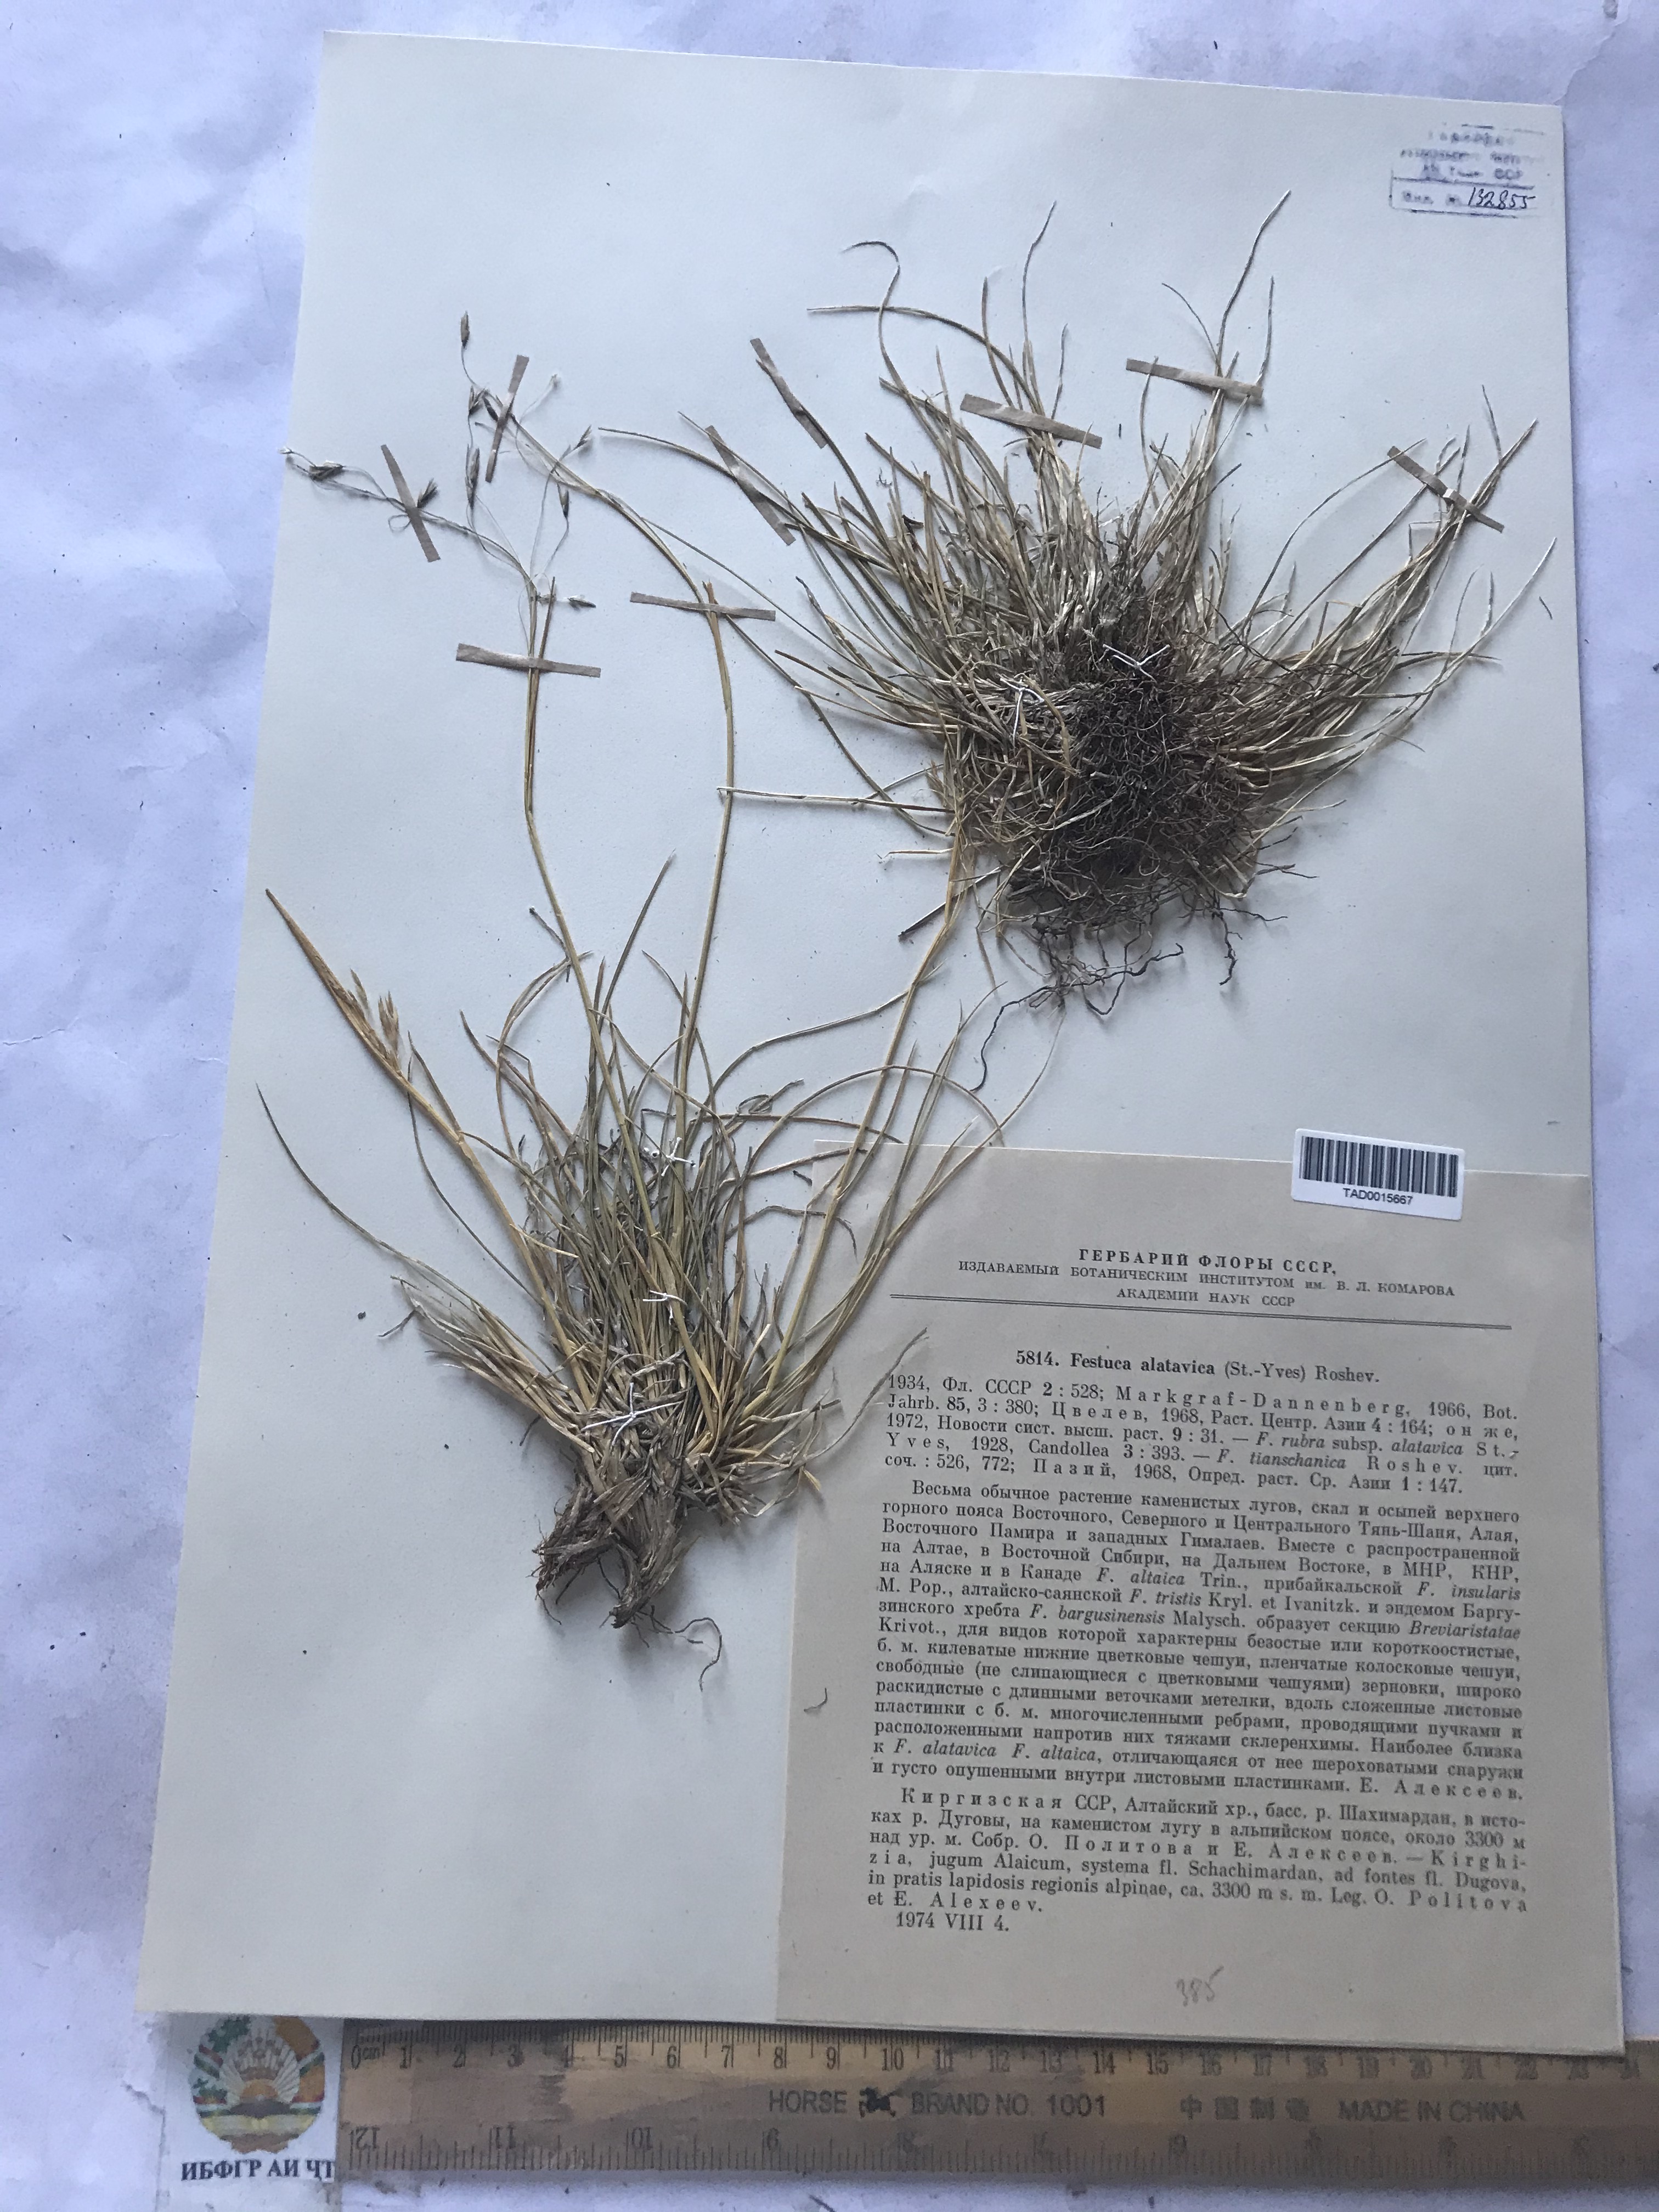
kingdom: Plantae
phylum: Tracheophyta
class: Liliopsida
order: Poales
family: Poaceae
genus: Festuca
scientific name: Festuca alatavica
